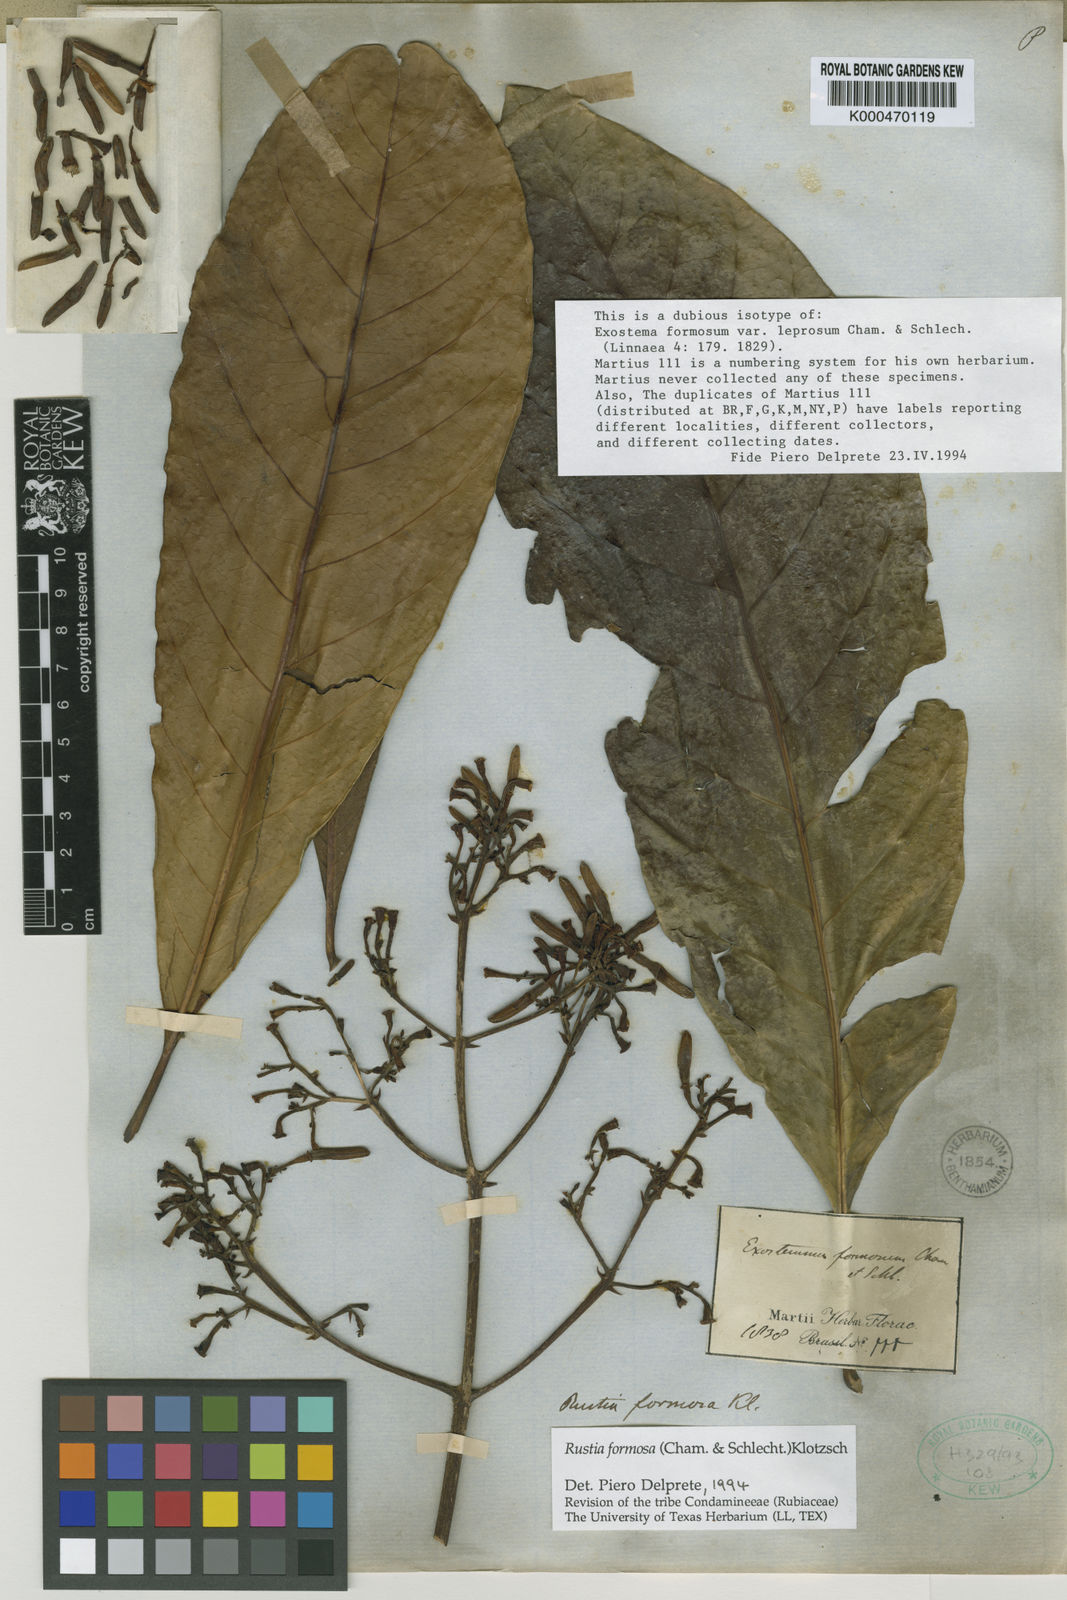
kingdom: Plantae
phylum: Tracheophyta
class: Magnoliopsida
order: Gentianales
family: Rubiaceae
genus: Rustia
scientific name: Rustia formosa
